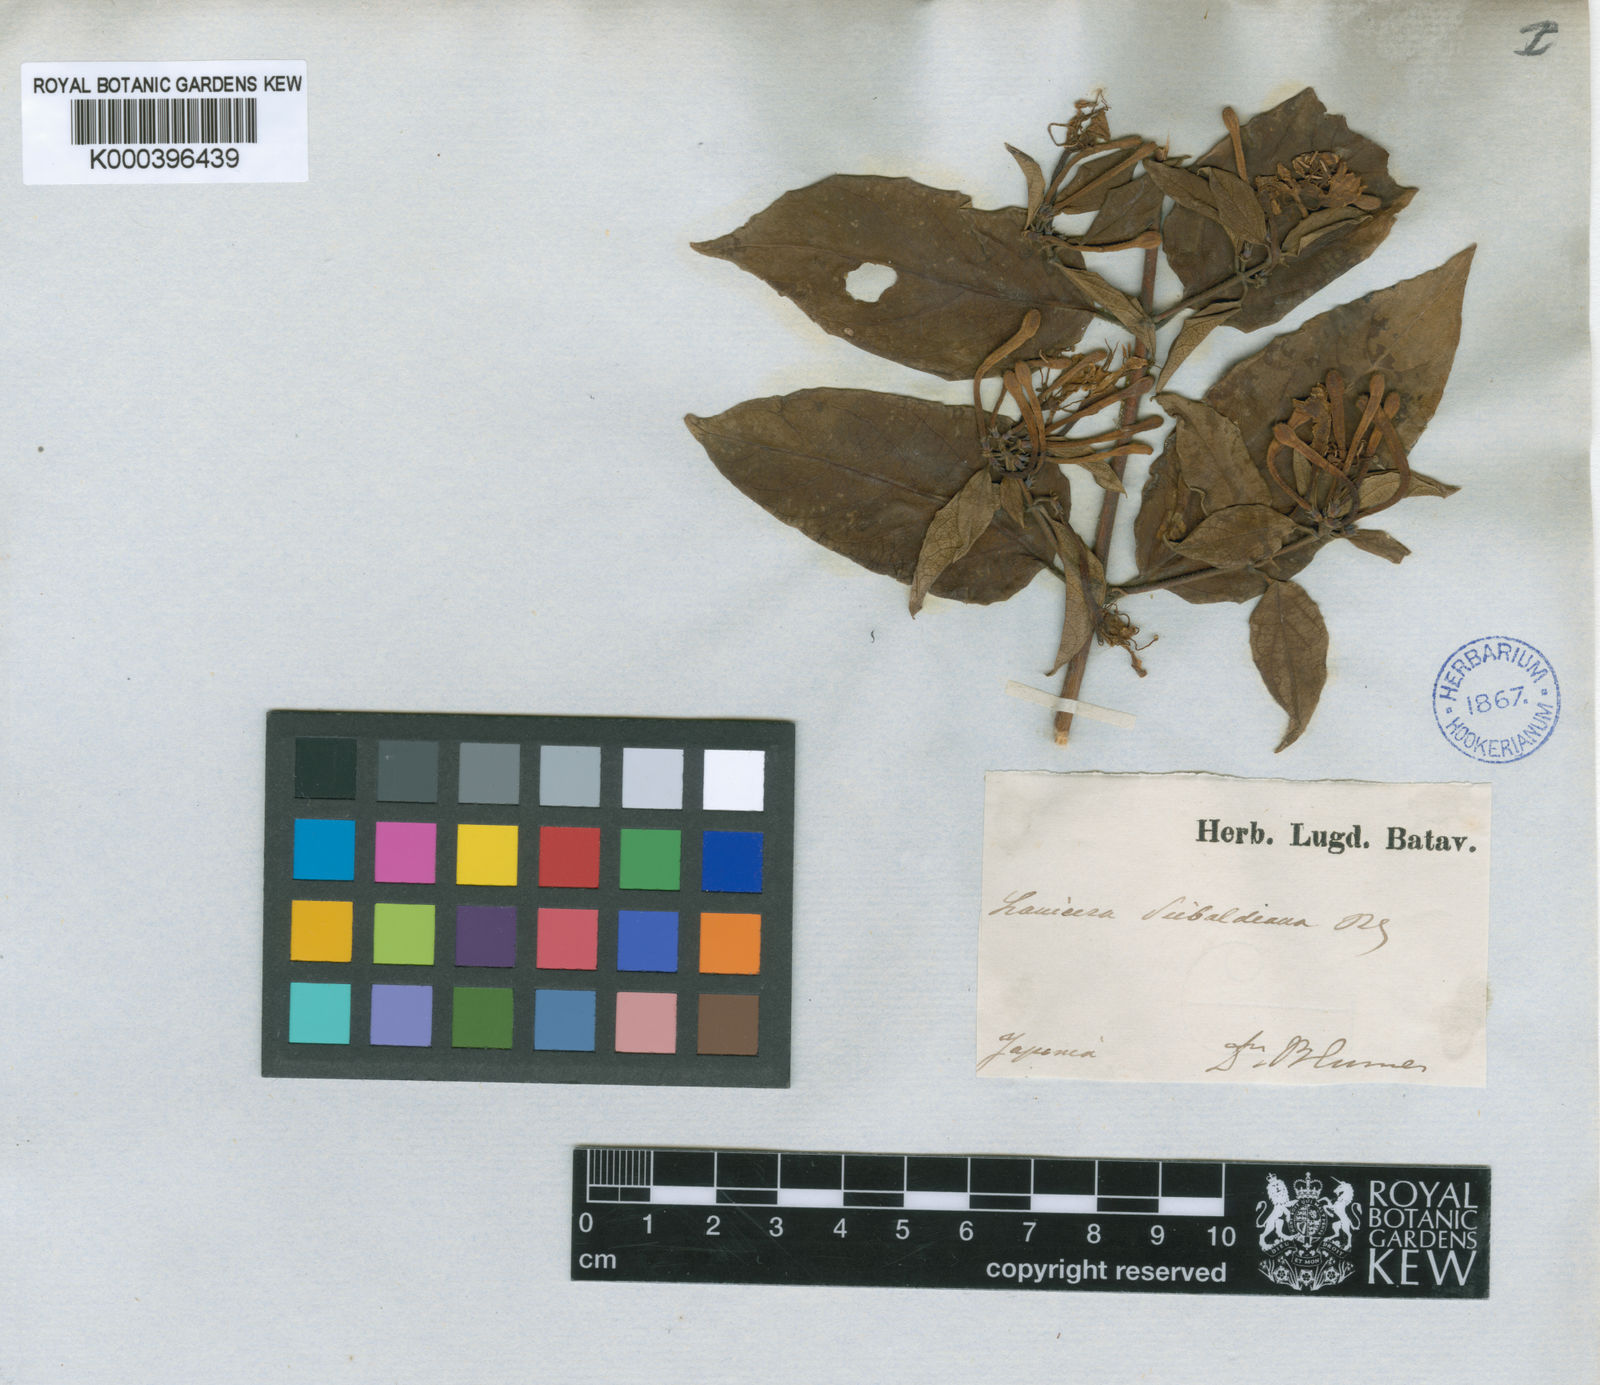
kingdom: Plantae
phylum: Tracheophyta
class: Magnoliopsida
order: Dipsacales
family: Caprifoliaceae
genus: Lonicera
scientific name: Lonicera hypoglauca
